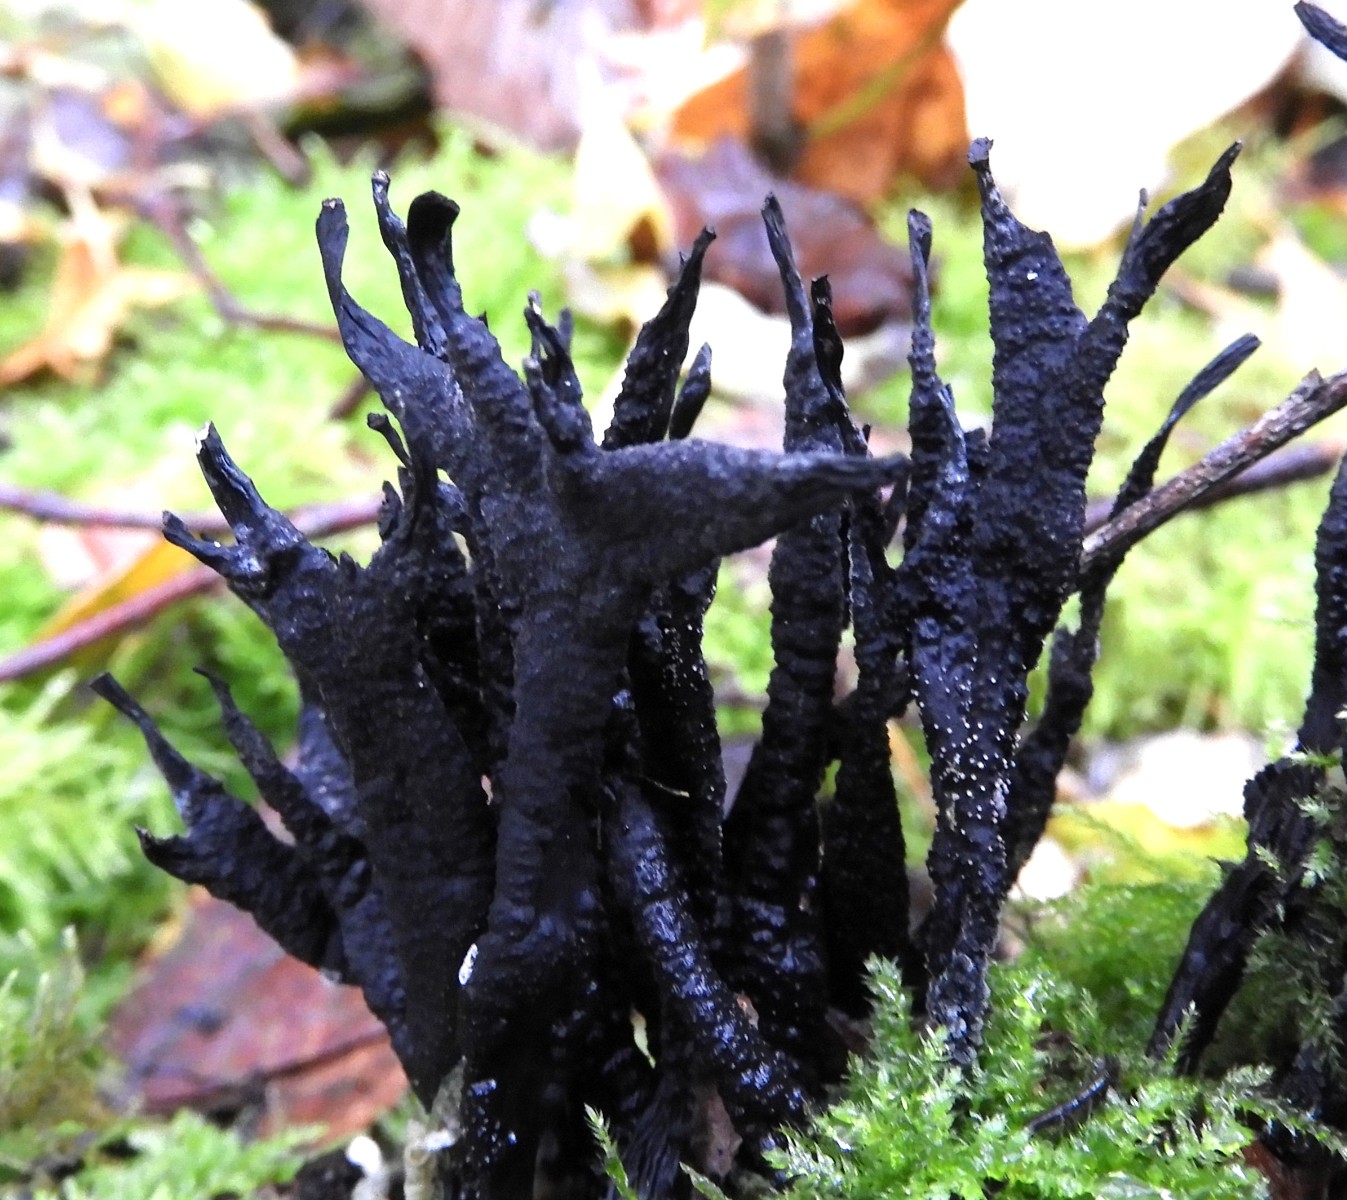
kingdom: Fungi
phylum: Ascomycota
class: Sordariomycetes
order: Xylariales
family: Xylariaceae
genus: Xylaria
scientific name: Xylaria hypoxylon
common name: grenet stødsvamp
